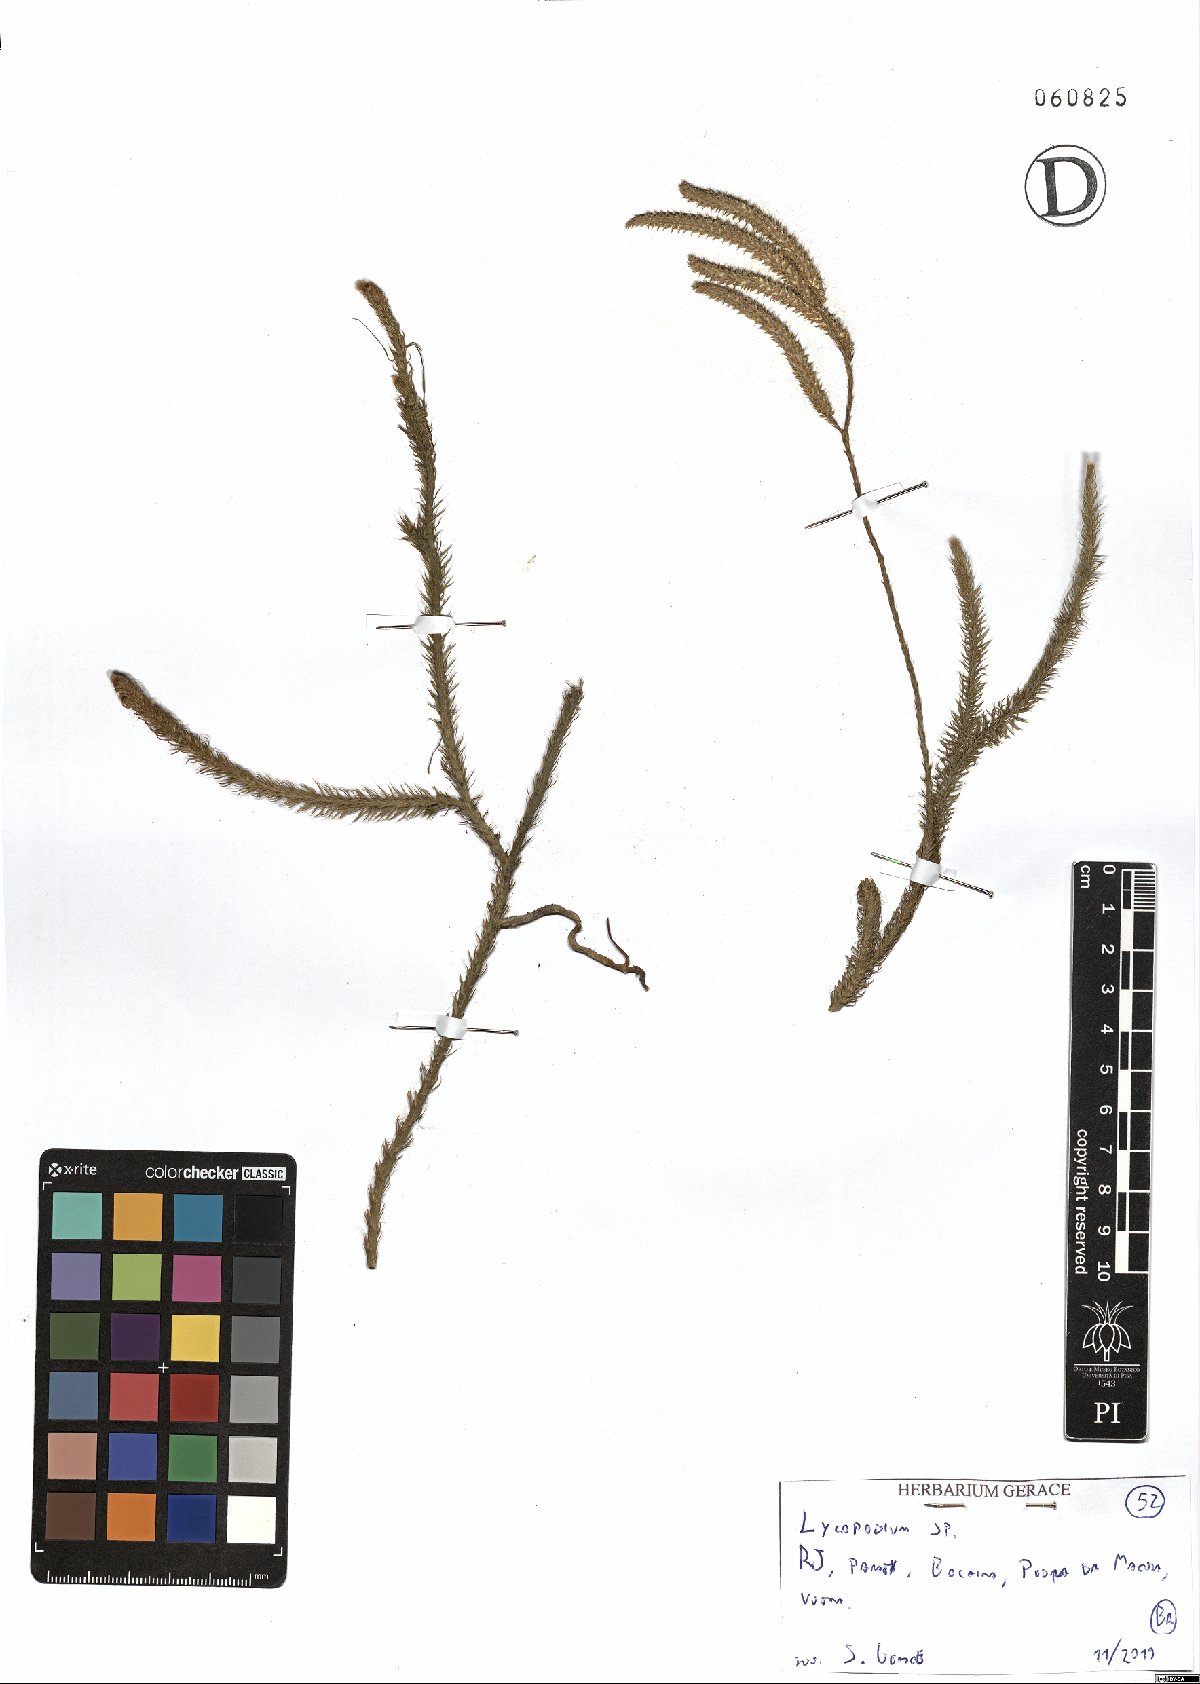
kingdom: Plantae
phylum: Tracheophyta
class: Lycopodiopsida
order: Lycopodiales
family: Lycopodiaceae
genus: Lycopodium
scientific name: Lycopodium
